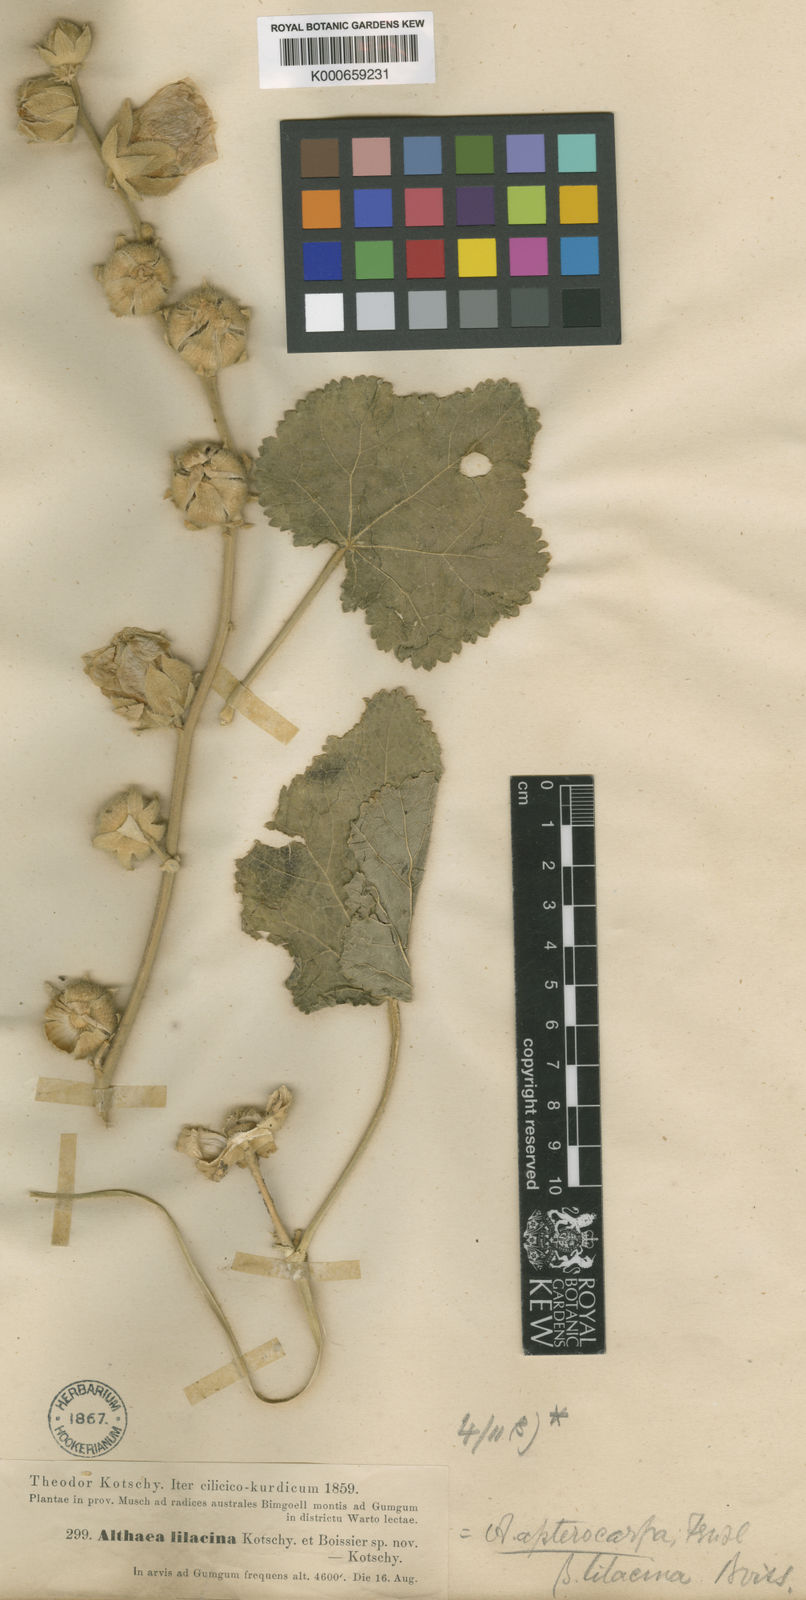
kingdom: Plantae
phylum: Tracheophyta
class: Magnoliopsida
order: Malvales
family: Malvaceae
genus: Alcea
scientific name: Alcea biennis
